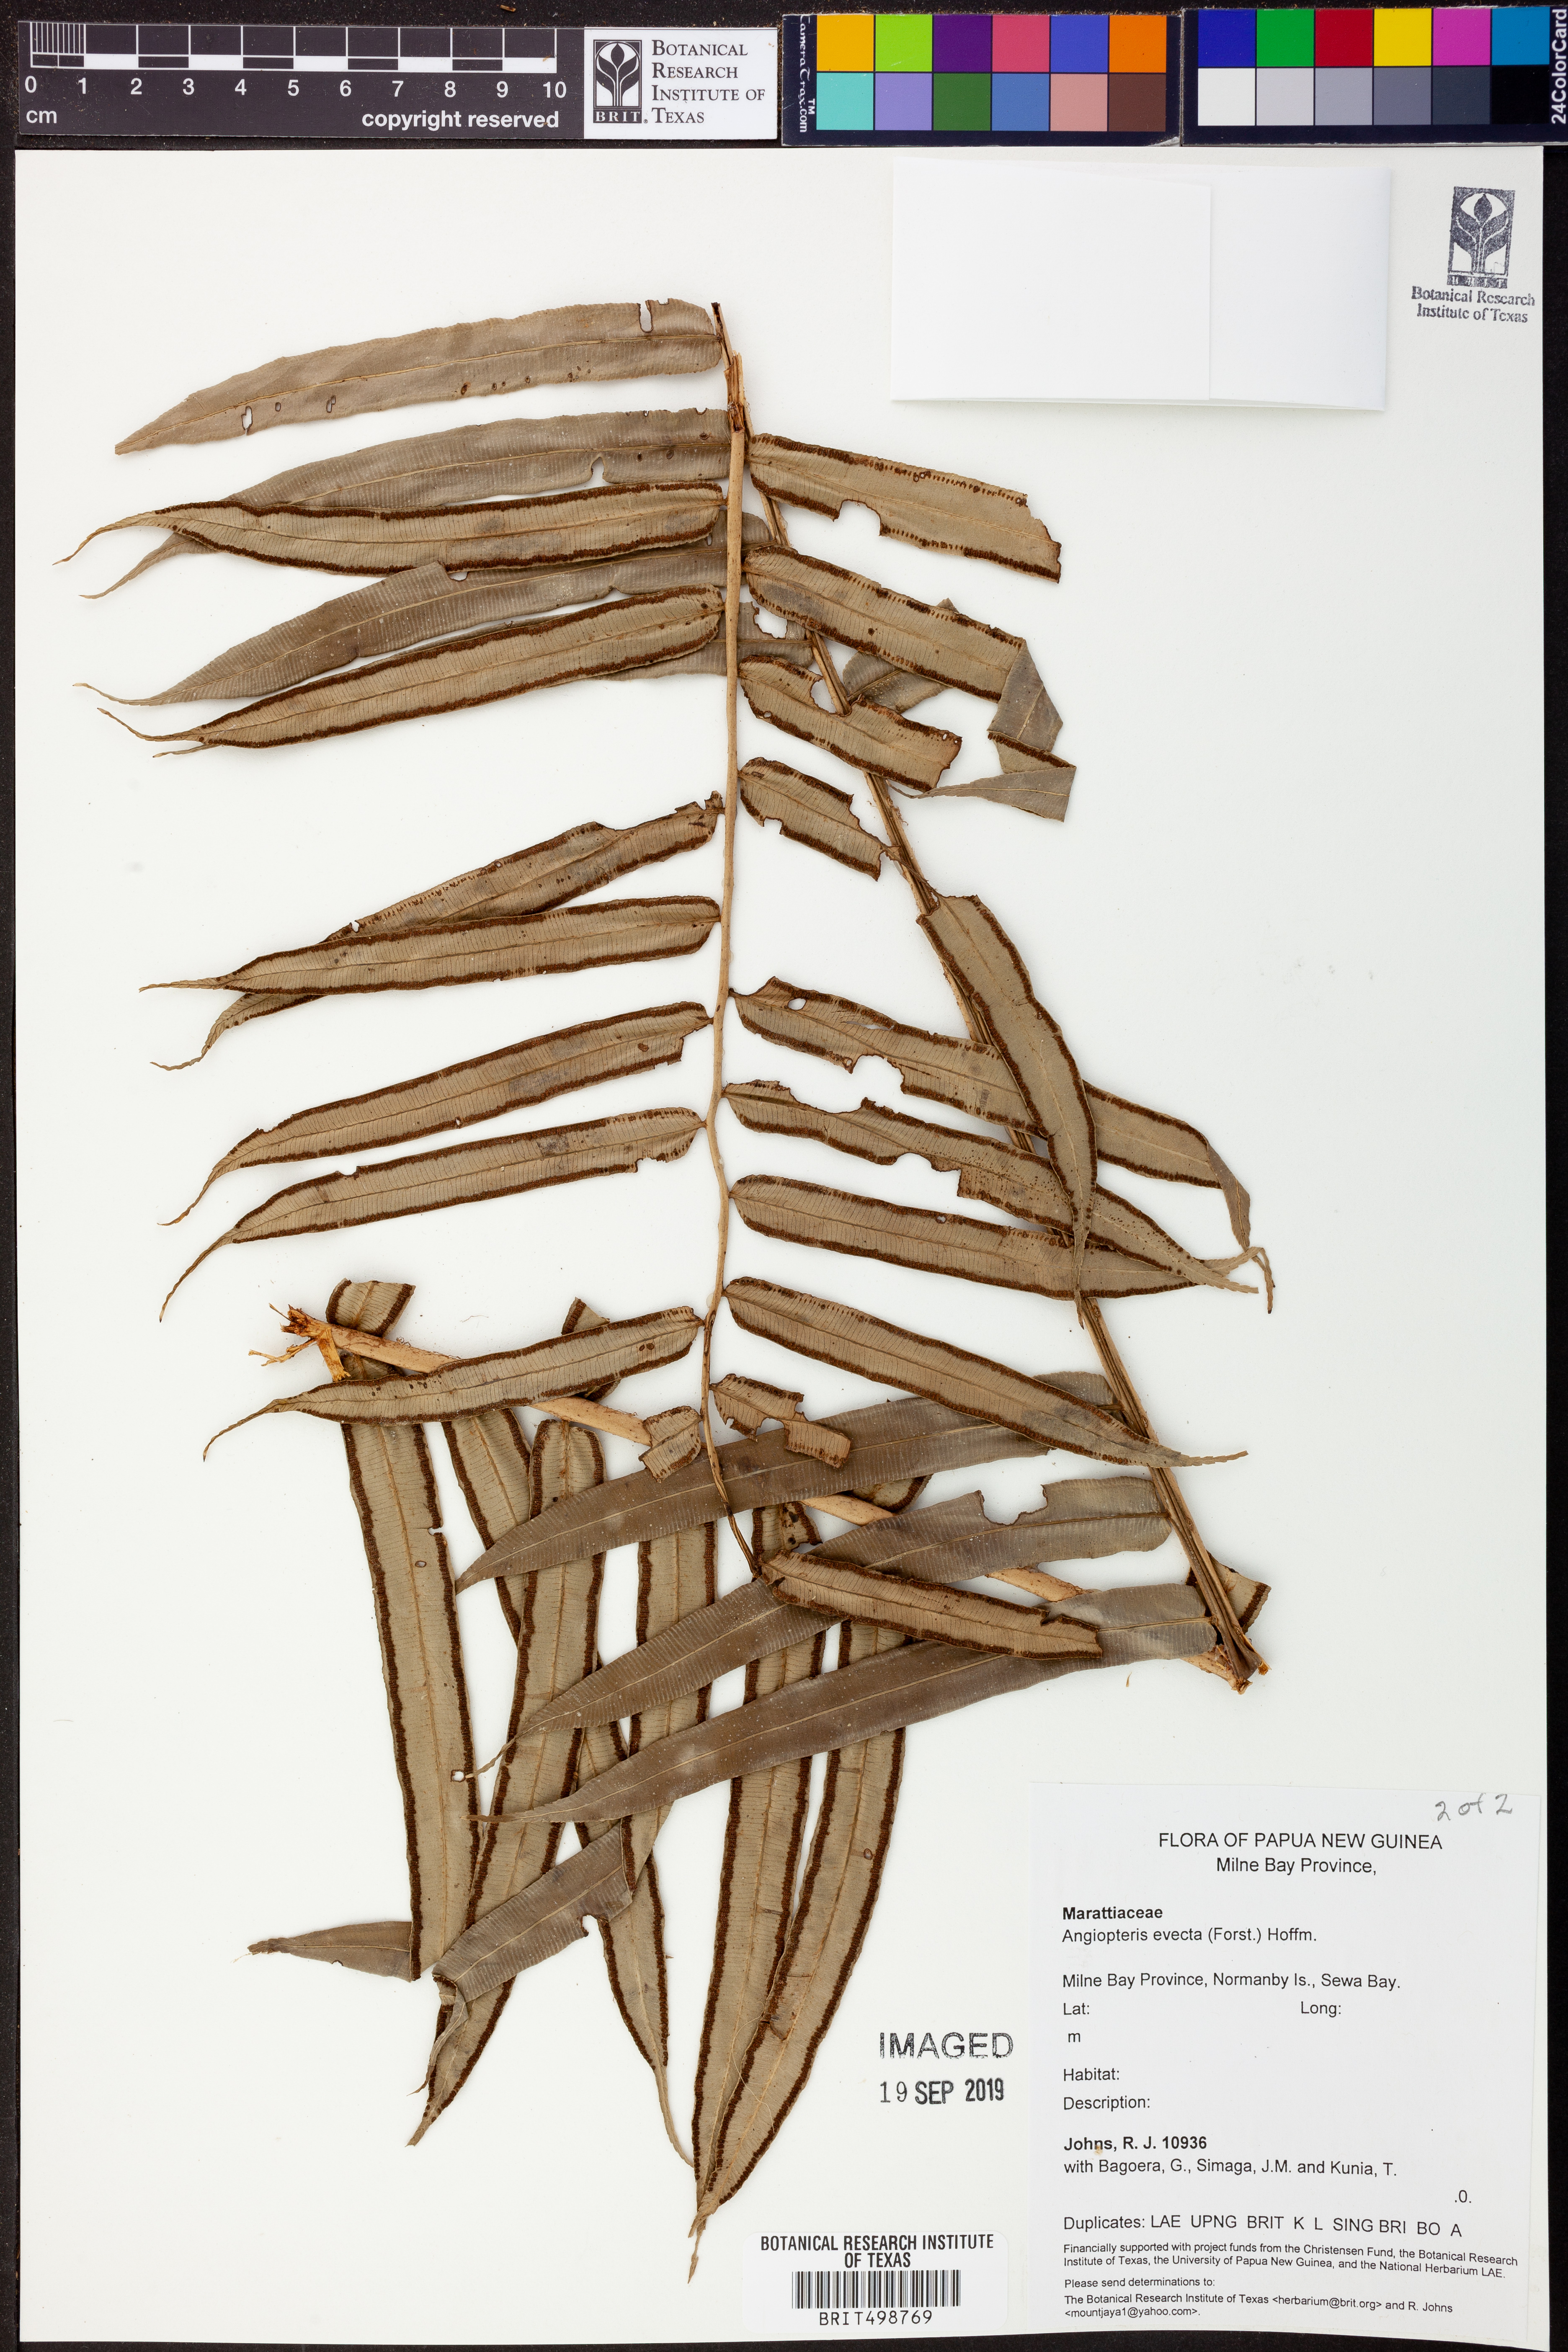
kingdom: Plantae
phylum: Tracheophyta
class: Polypodiopsida
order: Marattiales
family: Marattiaceae
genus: Angiopteris
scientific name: Angiopteris evecta
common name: Mule's-foot fern
